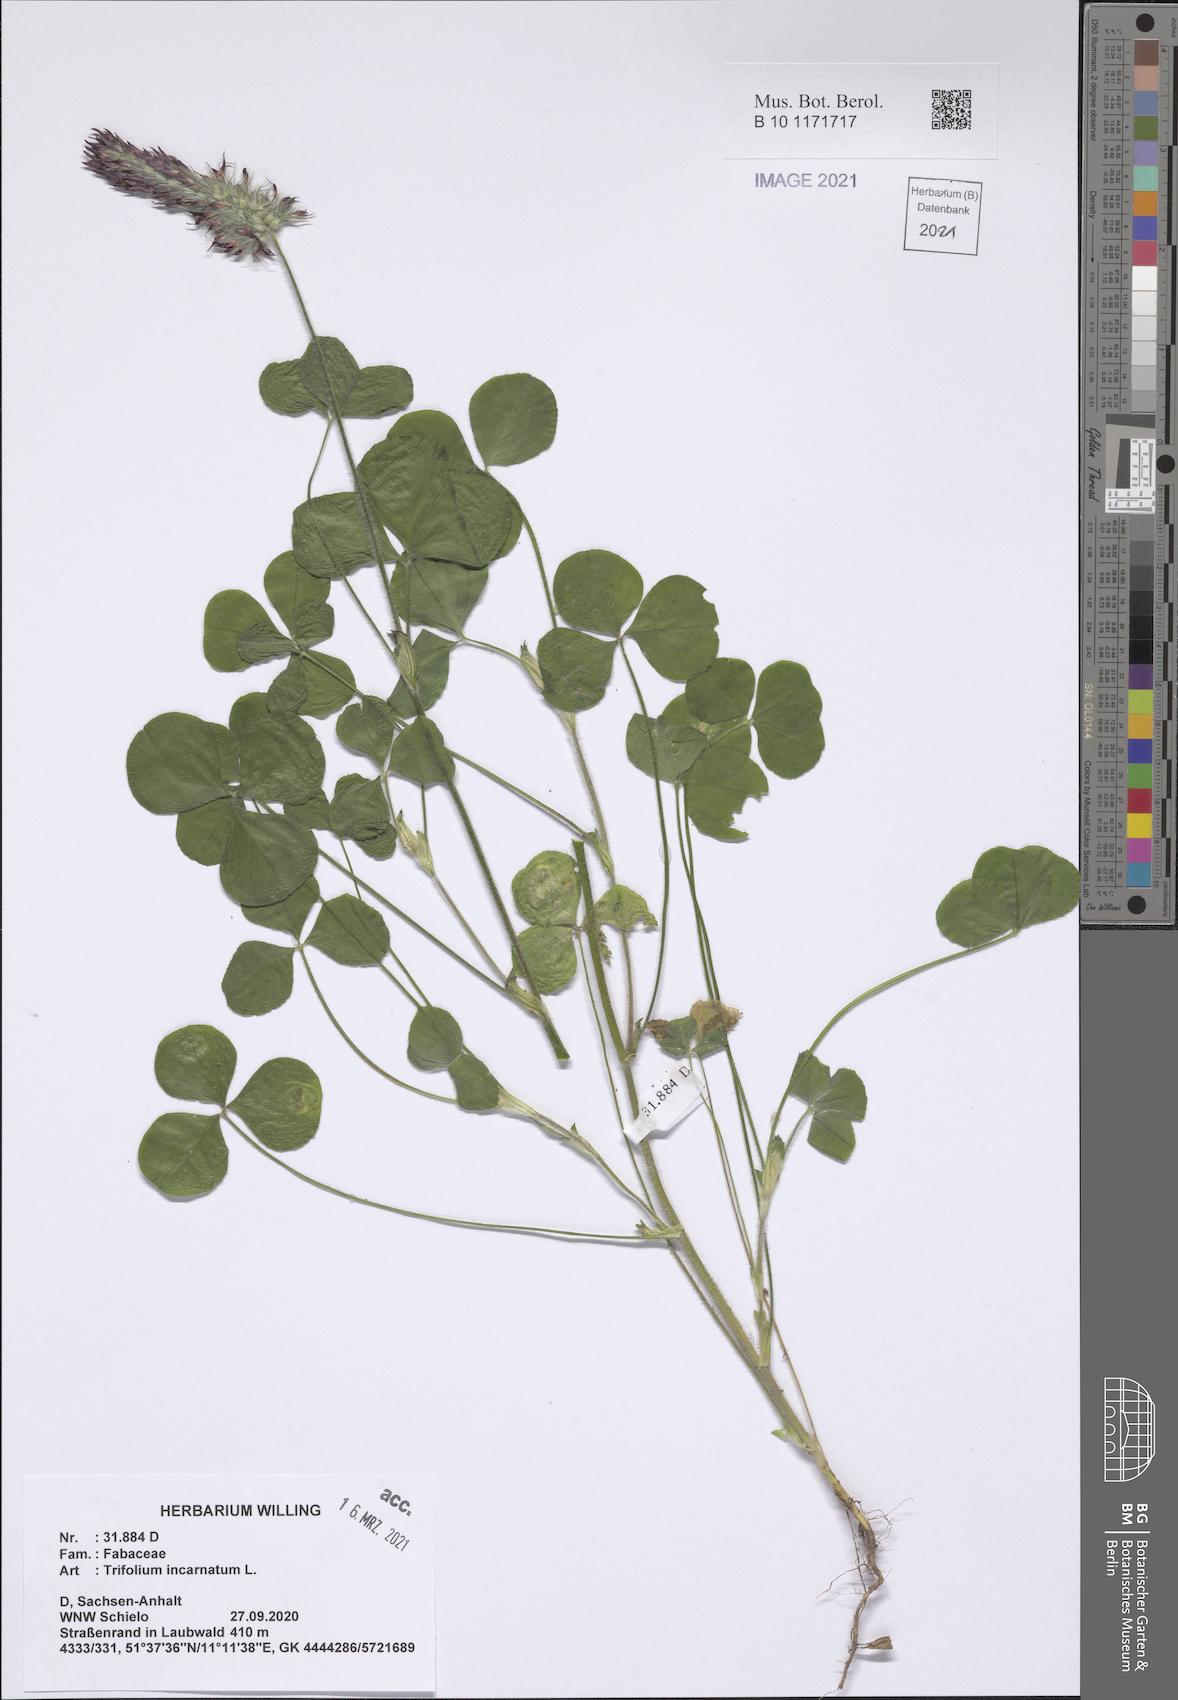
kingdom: Plantae
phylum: Tracheophyta
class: Magnoliopsida
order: Fabales
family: Fabaceae
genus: Trifolium
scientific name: Trifolium incarnatum
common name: Crimson clover
